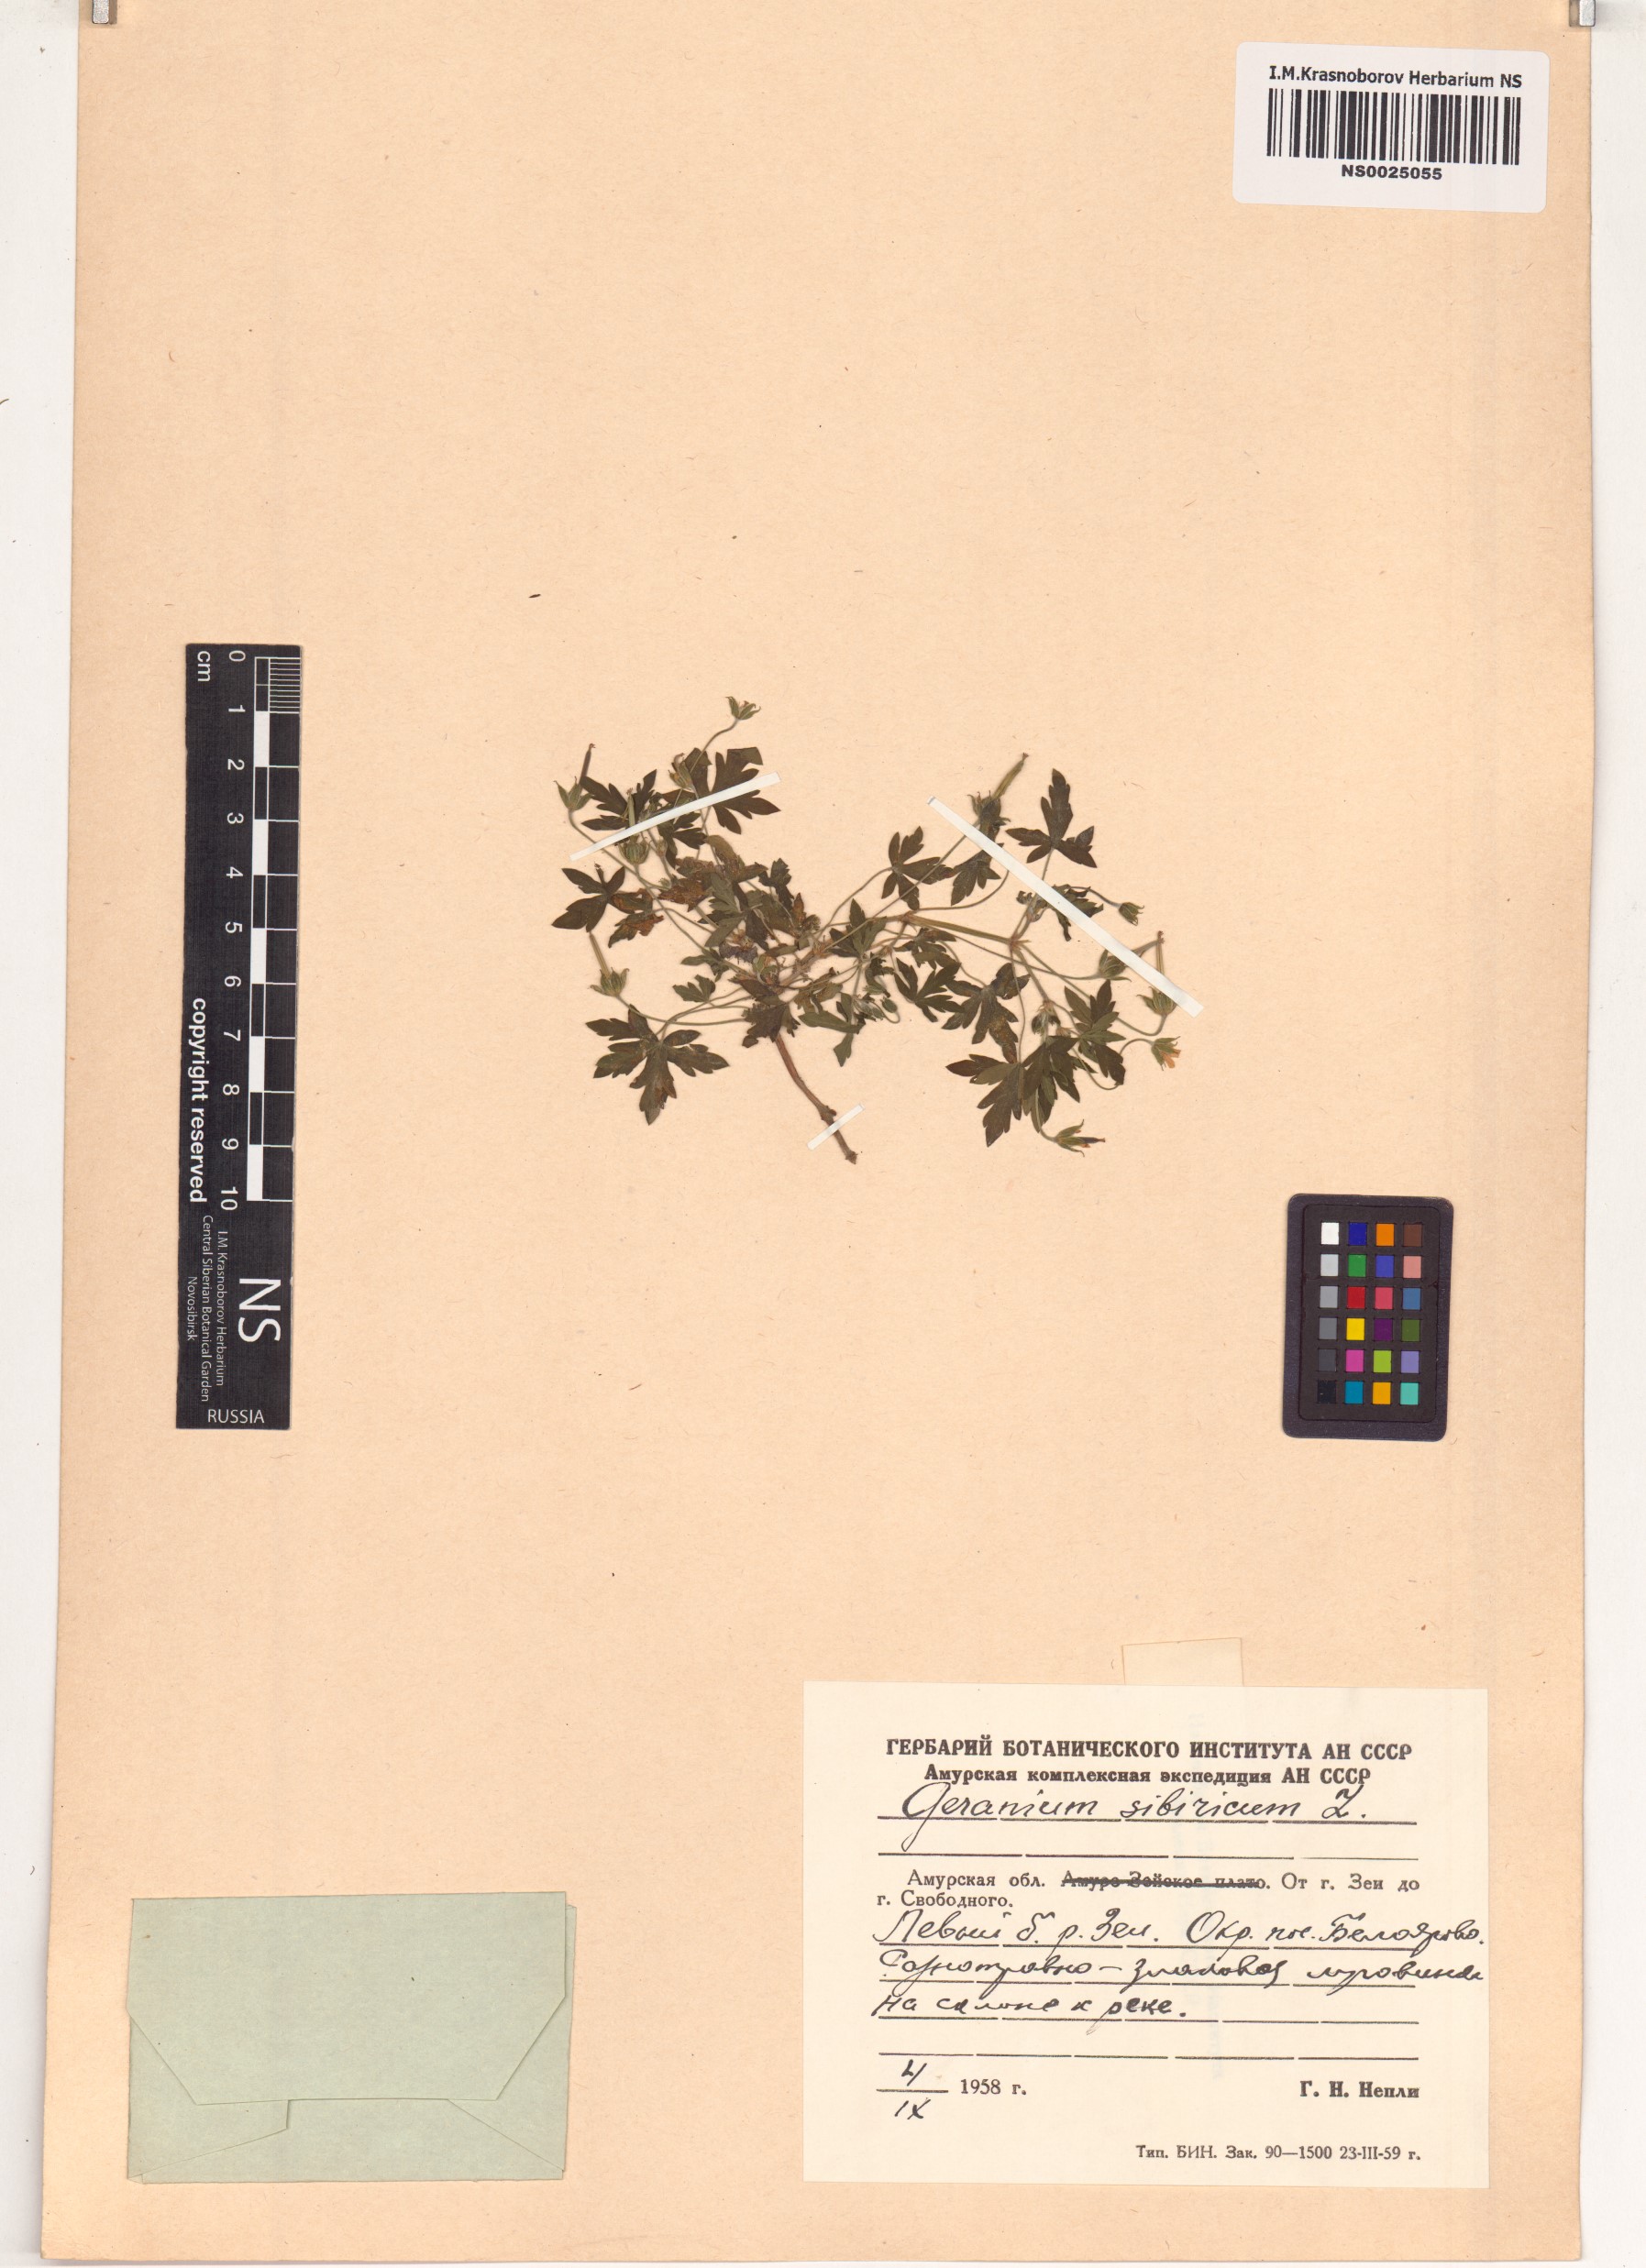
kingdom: Plantae
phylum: Tracheophyta
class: Magnoliopsida
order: Geraniales
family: Geraniaceae
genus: Geranium
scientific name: Geranium sibiricum
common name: Siberian crane's-bill
